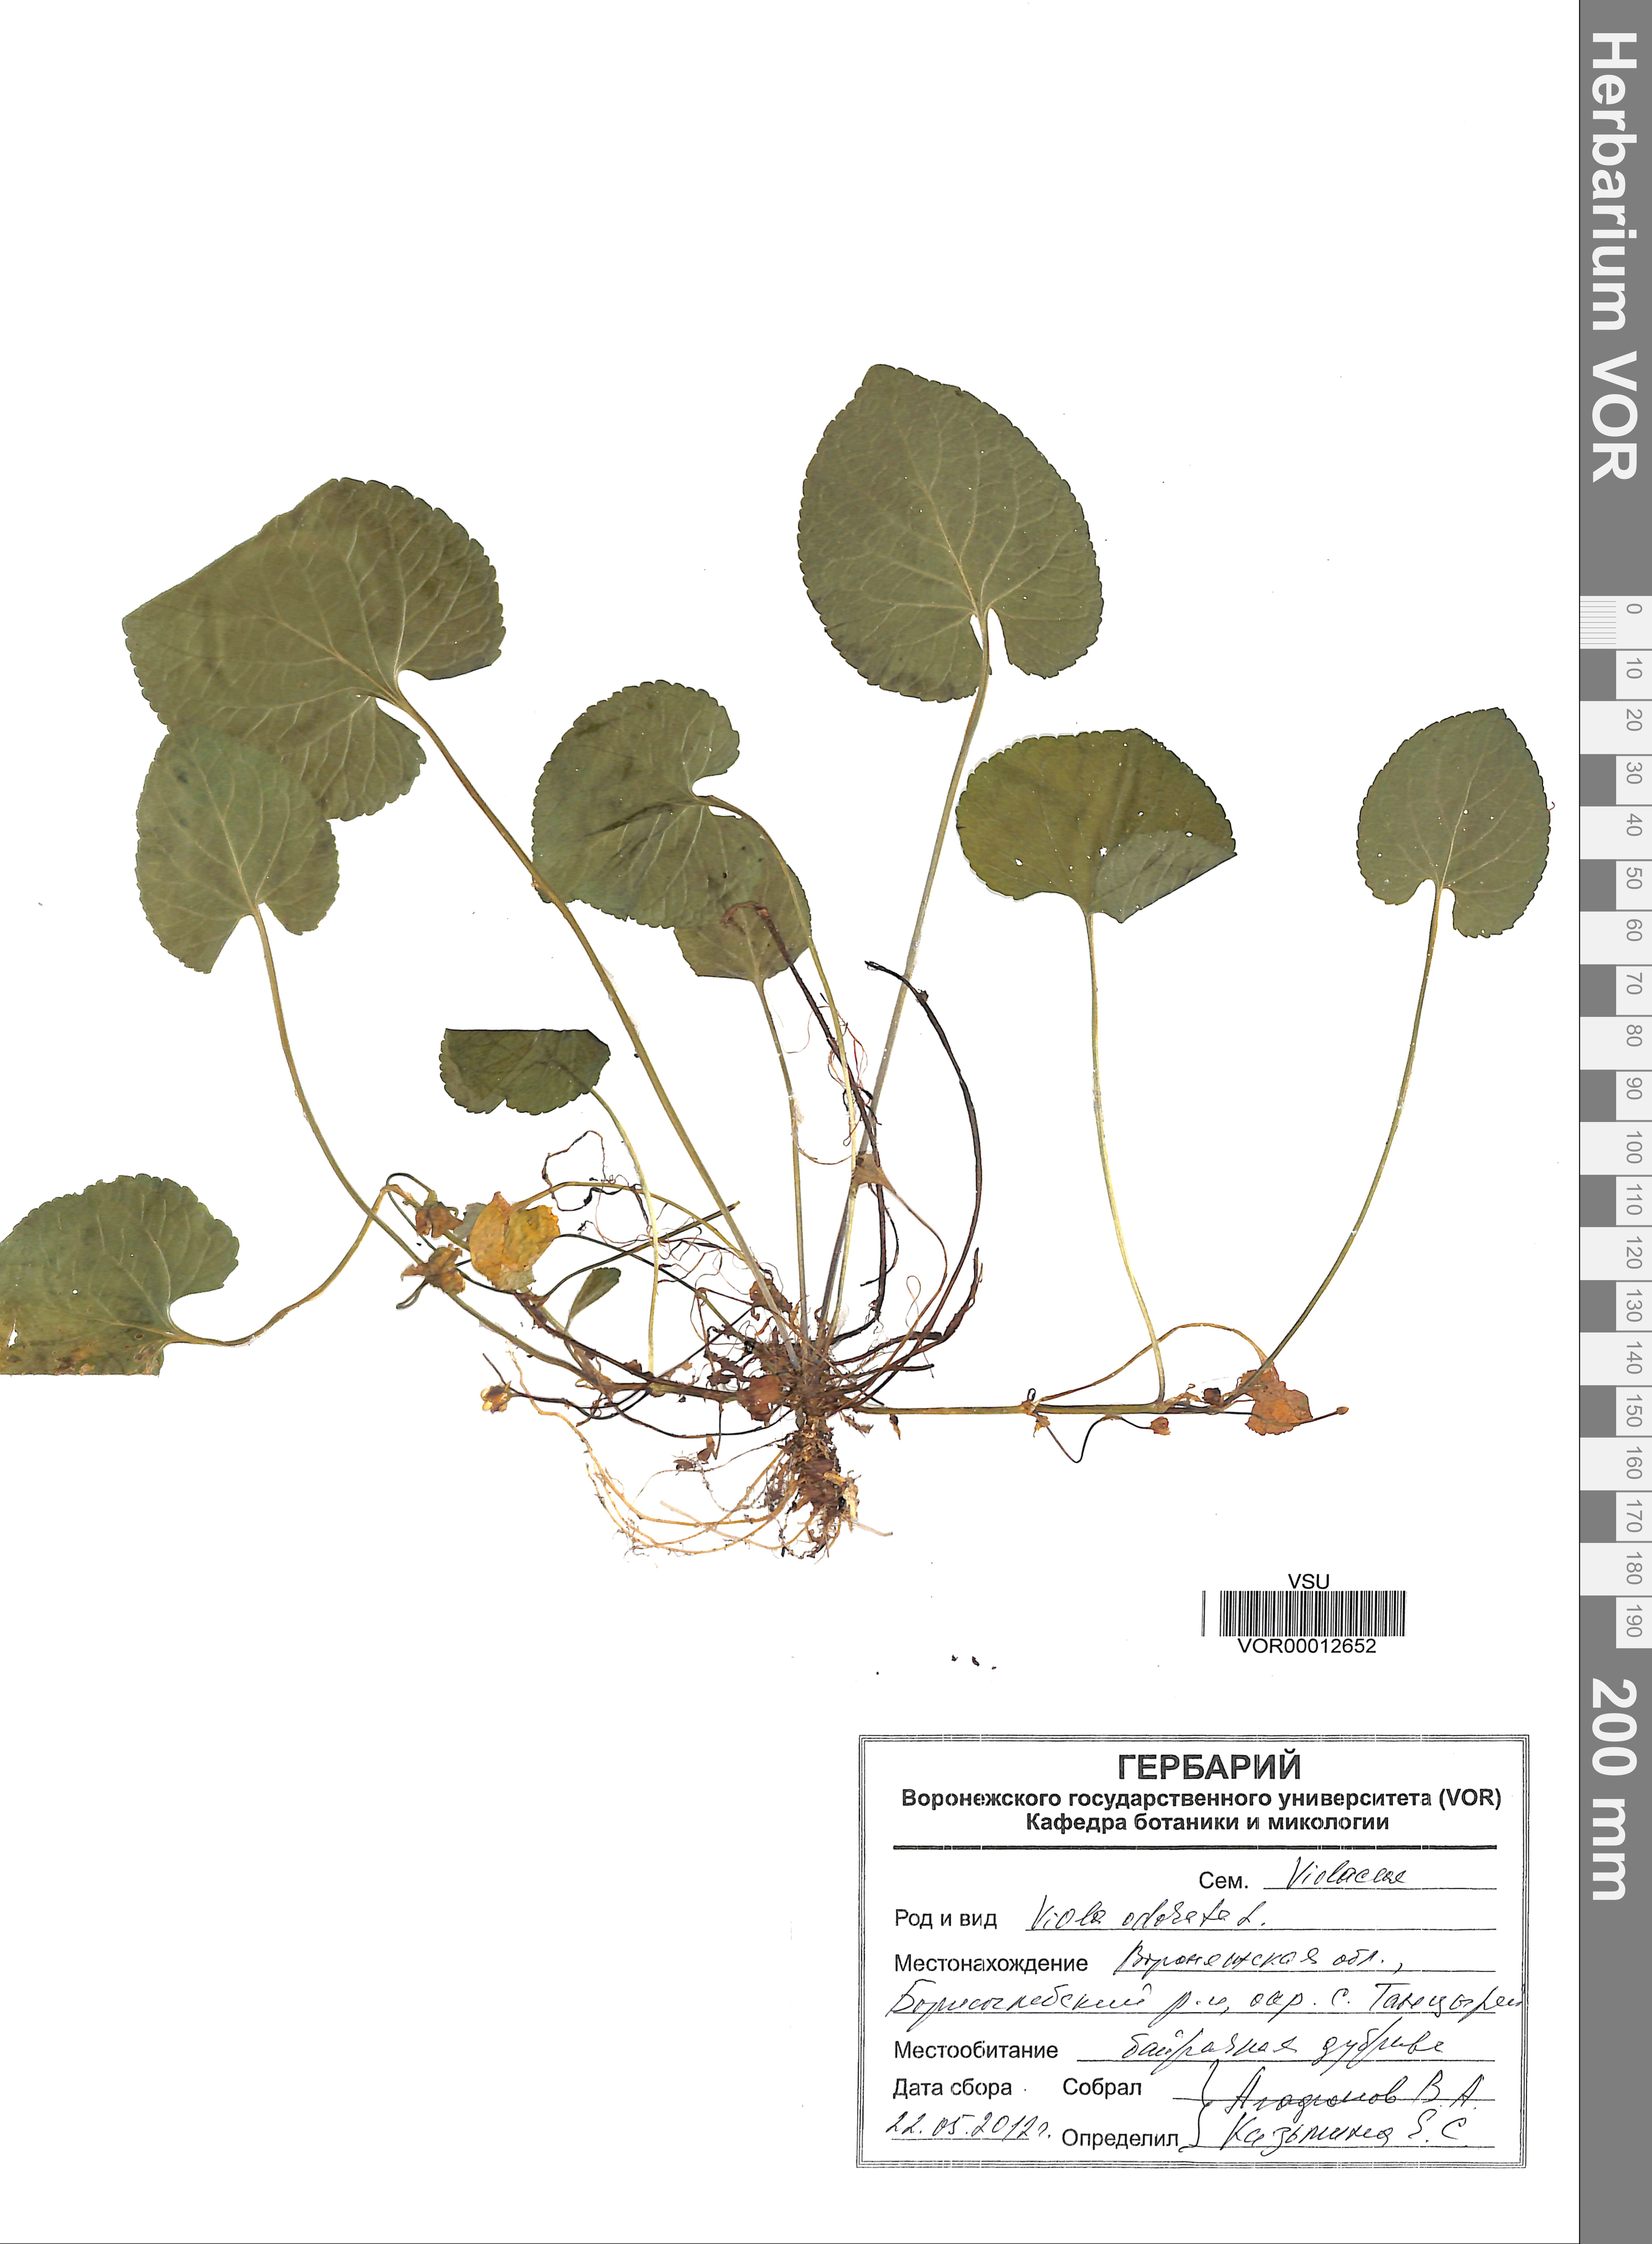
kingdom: Plantae
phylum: Tracheophyta
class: Magnoliopsida
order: Malpighiales
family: Violaceae
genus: Viola
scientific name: Viola odorata
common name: Sweet violet
